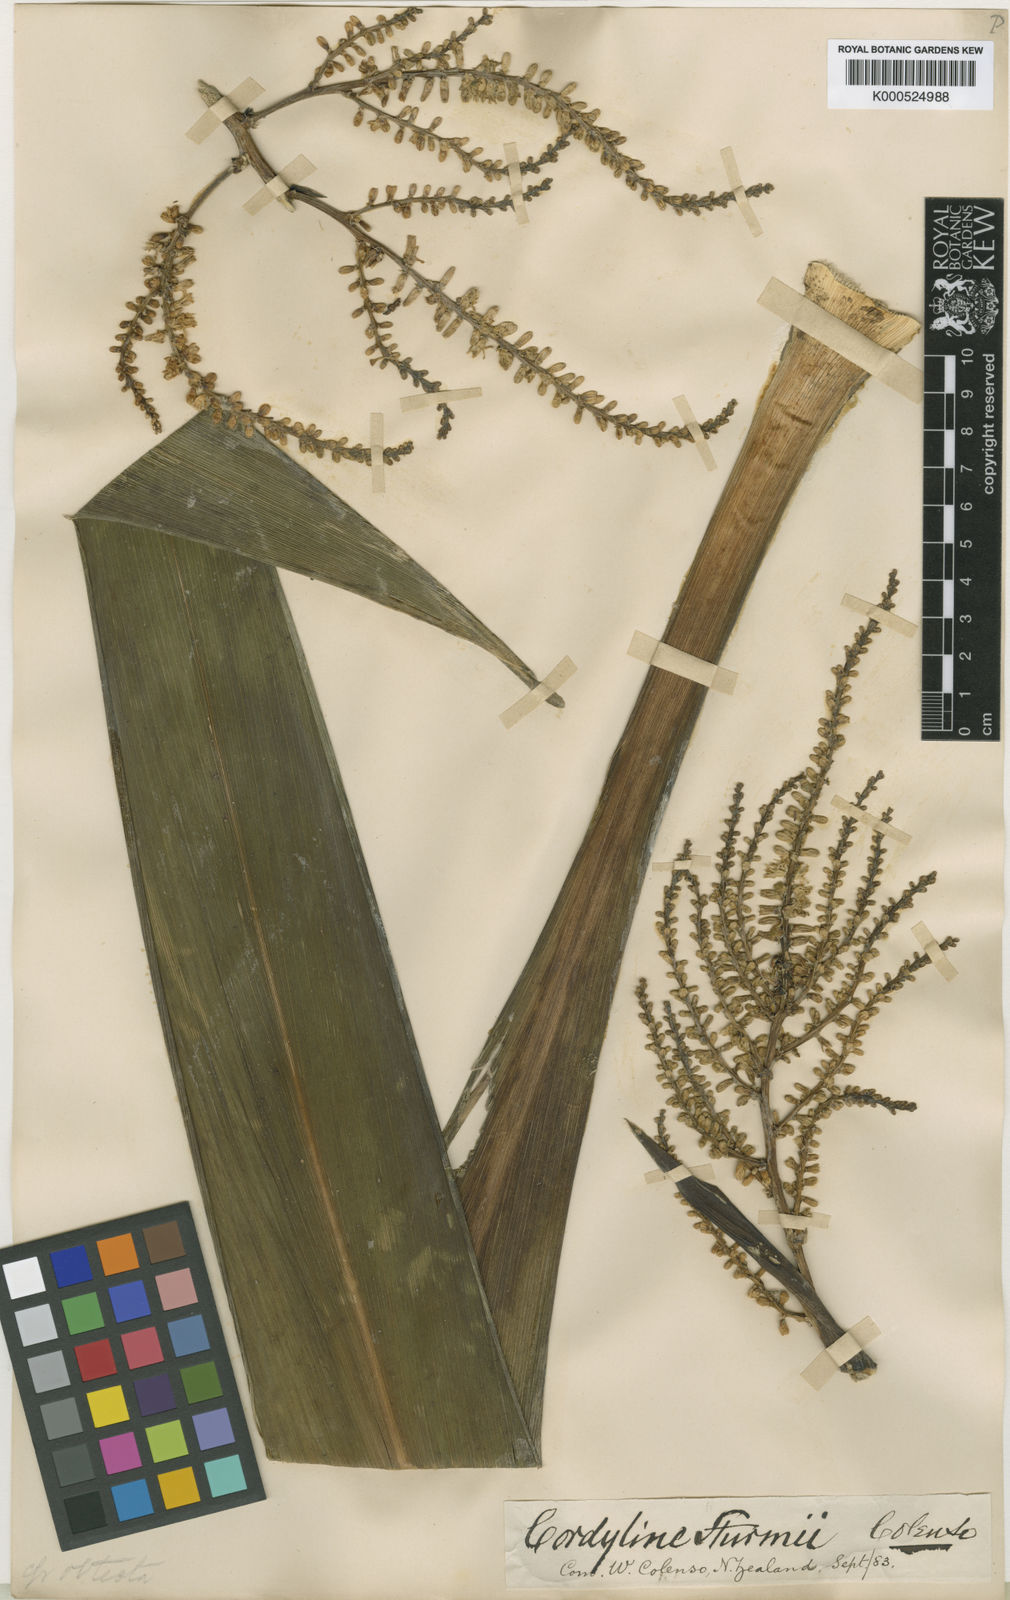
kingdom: Plantae
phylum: Tracheophyta
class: Liliopsida
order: Asparagales
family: Asparagaceae
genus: Cordyline
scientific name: Cordyline obtecta
